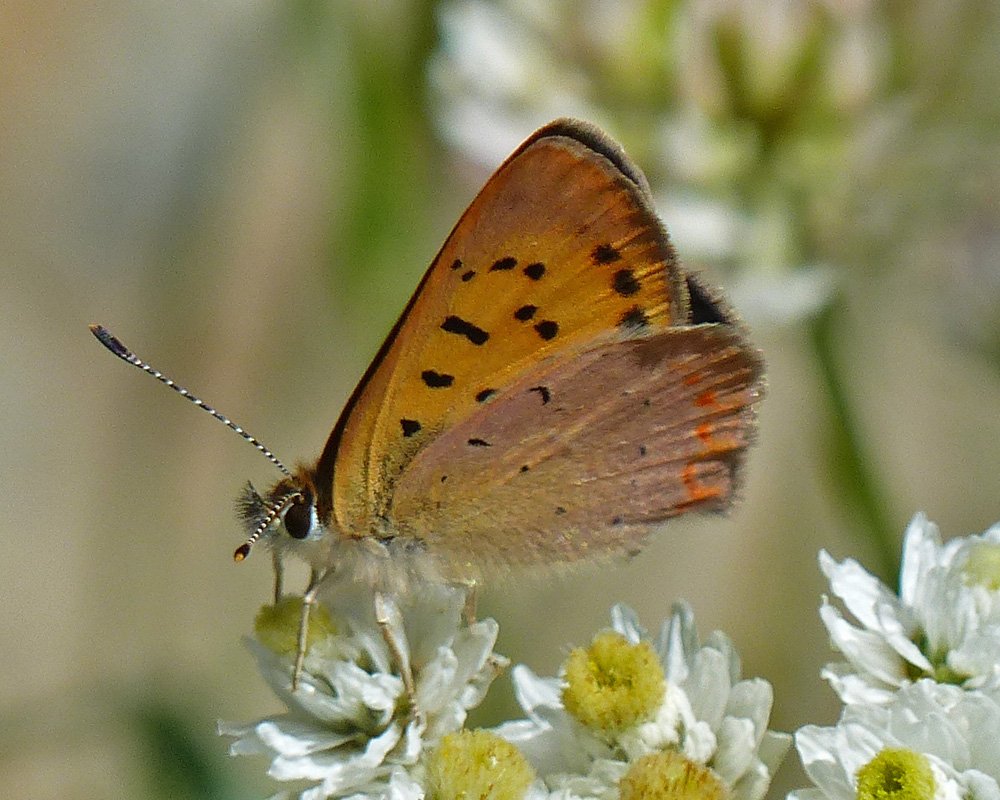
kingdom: Animalia
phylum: Arthropoda
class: Insecta
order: Lepidoptera
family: Sesiidae
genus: Sesia
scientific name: Sesia Lycaena helloides
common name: Purplish Copper
